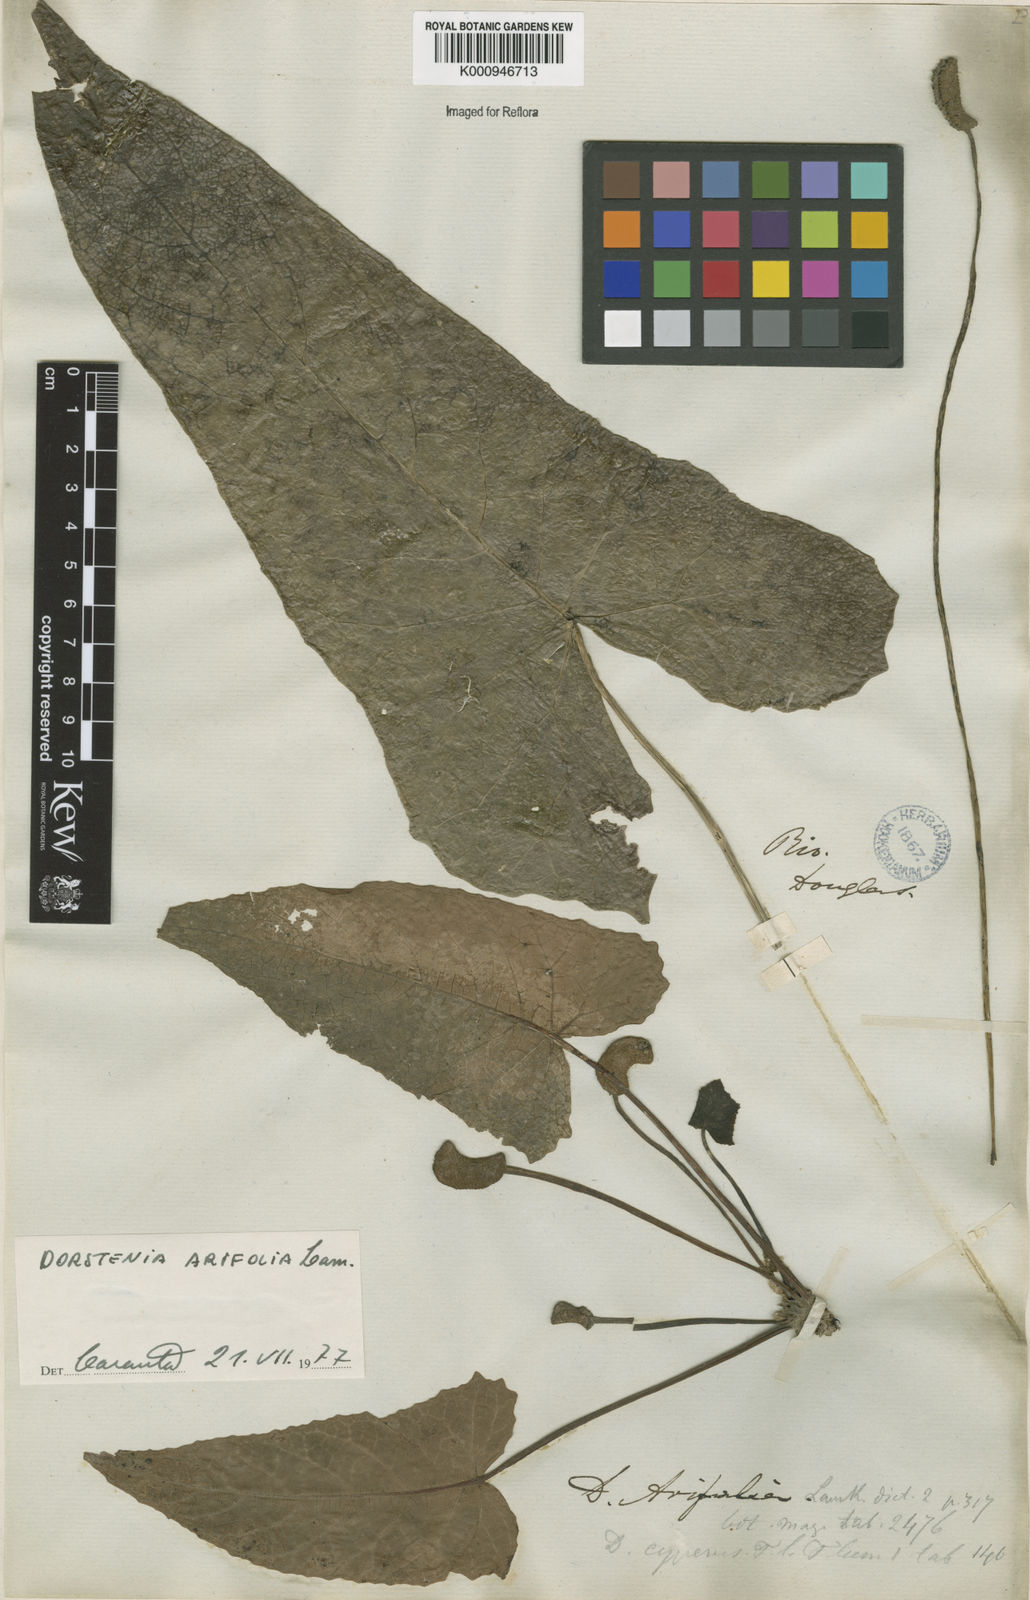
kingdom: Plantae
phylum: Tracheophyta
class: Magnoliopsida
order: Rosales
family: Moraceae
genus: Dorstenia
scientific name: Dorstenia arifolia
